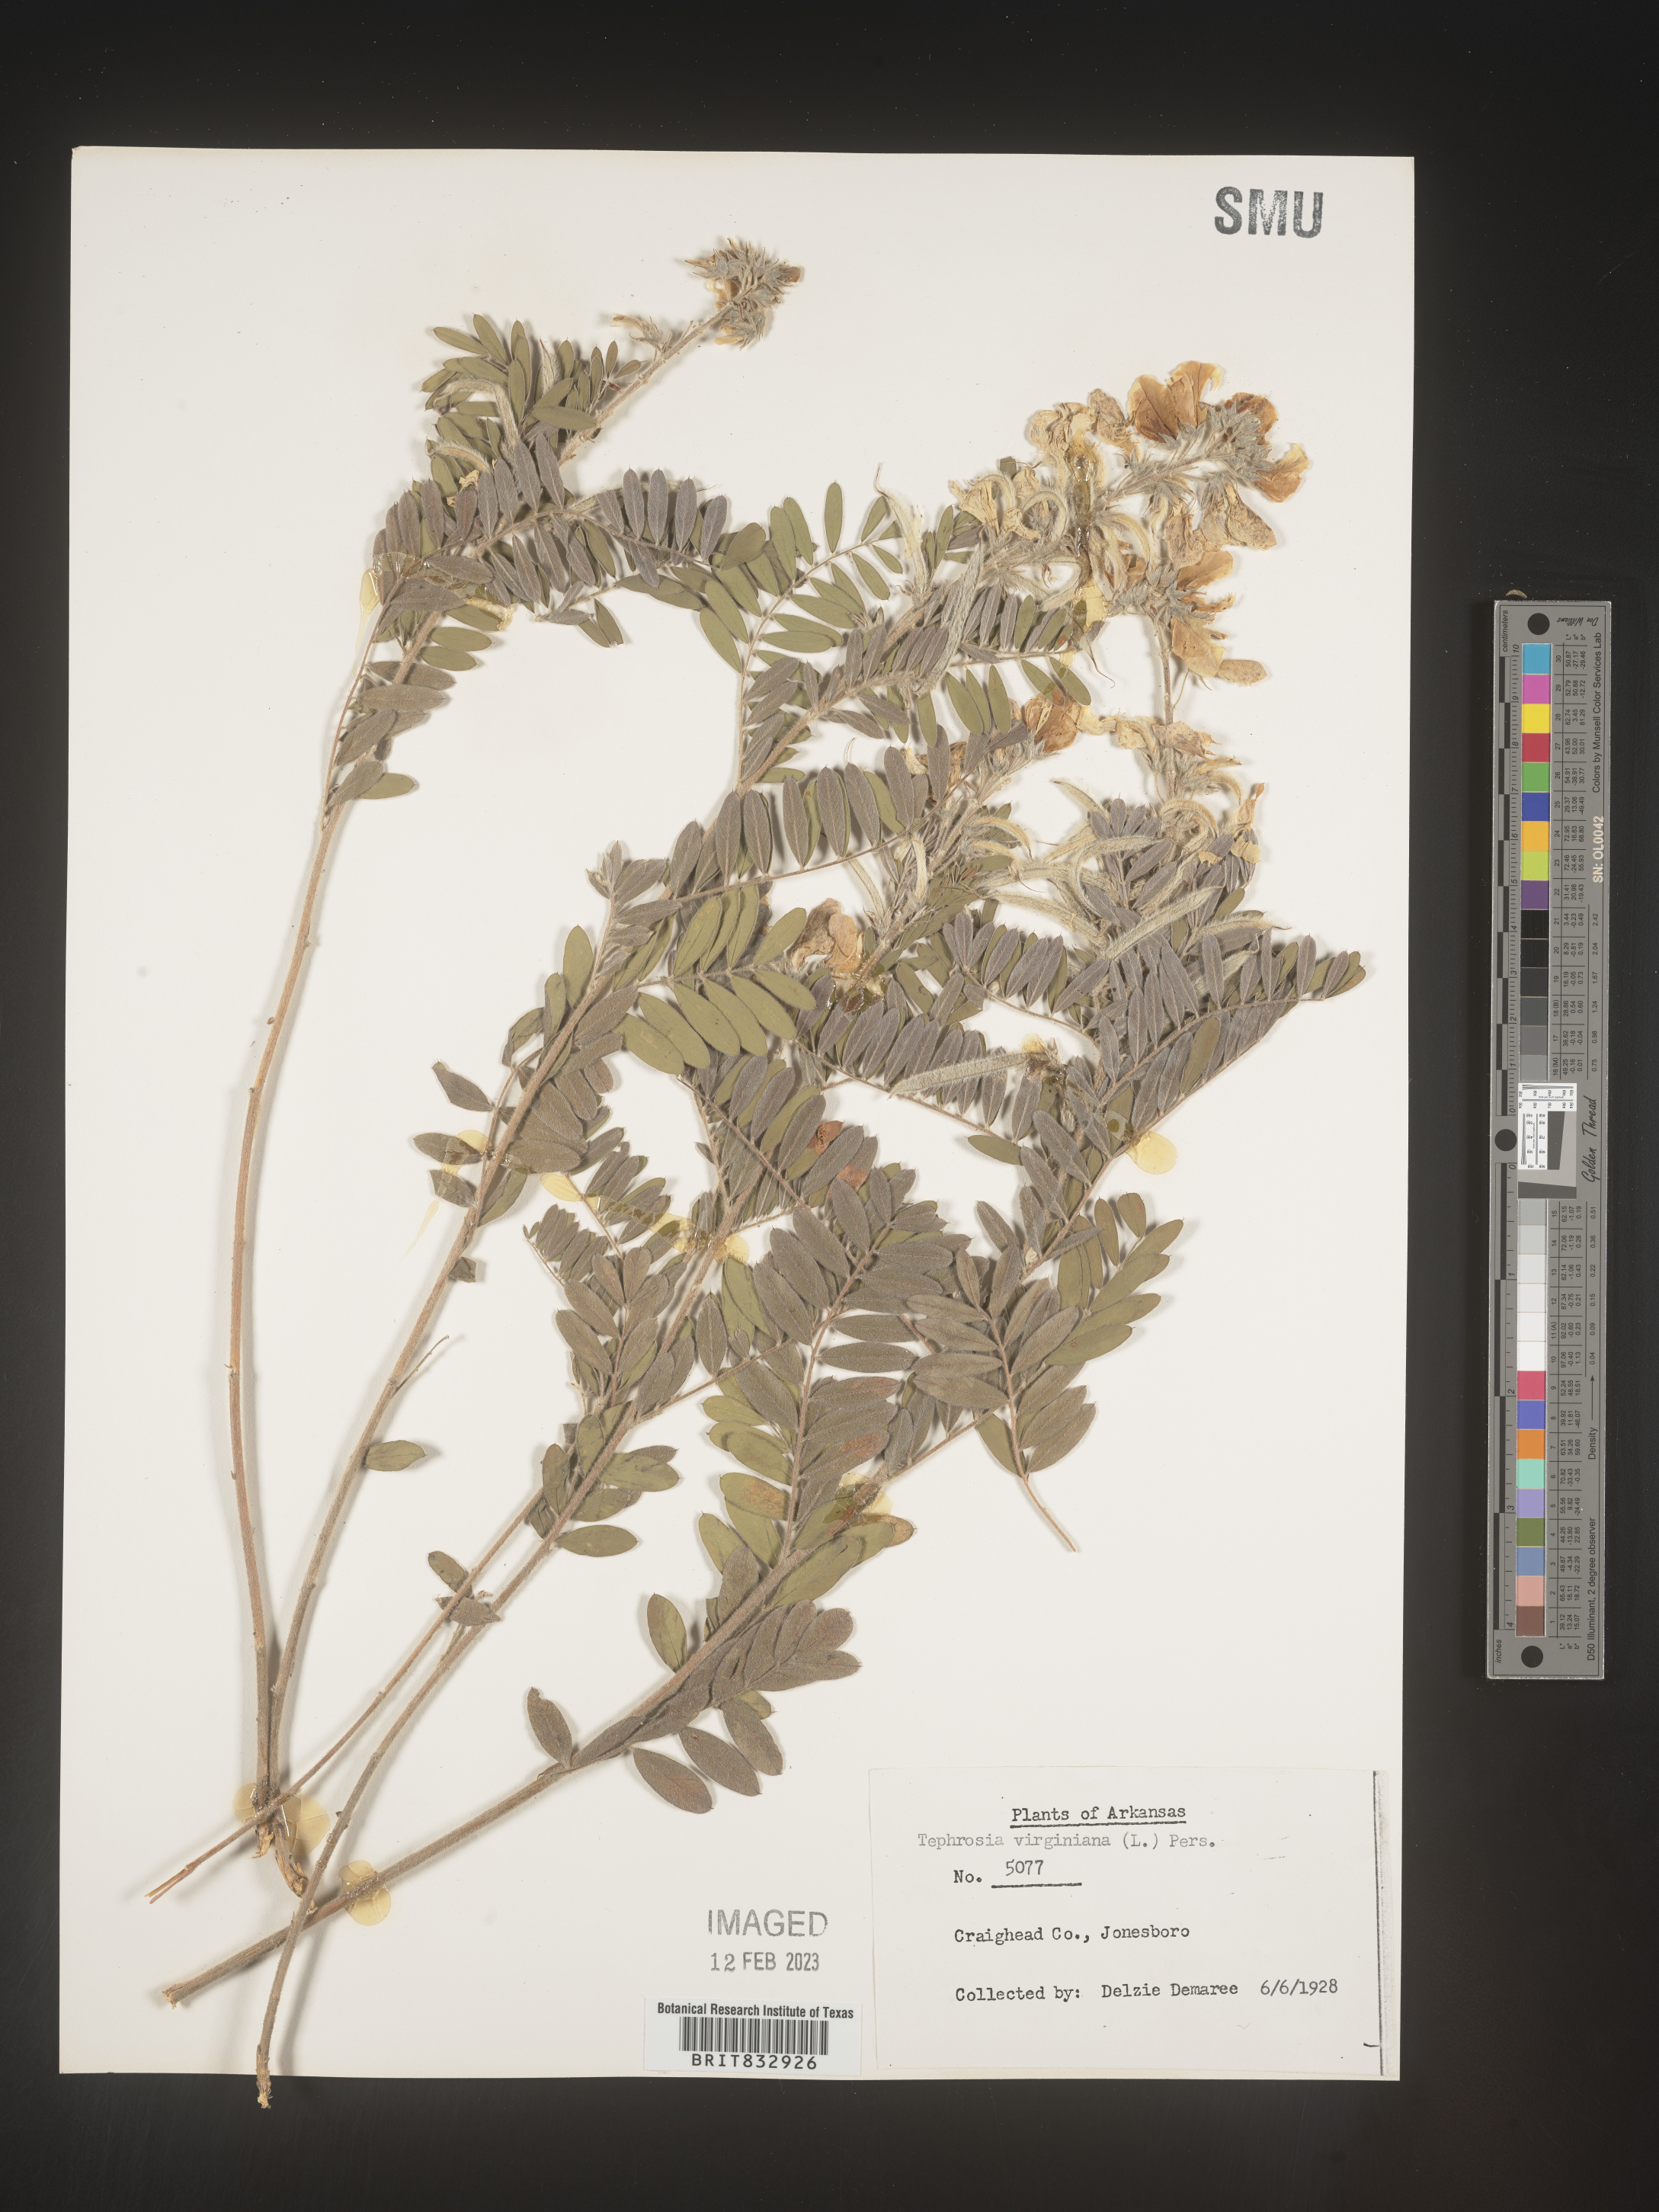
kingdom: Plantae
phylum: Tracheophyta
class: Magnoliopsida
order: Fabales
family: Fabaceae
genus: Tephrosia
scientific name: Tephrosia virginiana
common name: Rabbit-pea
